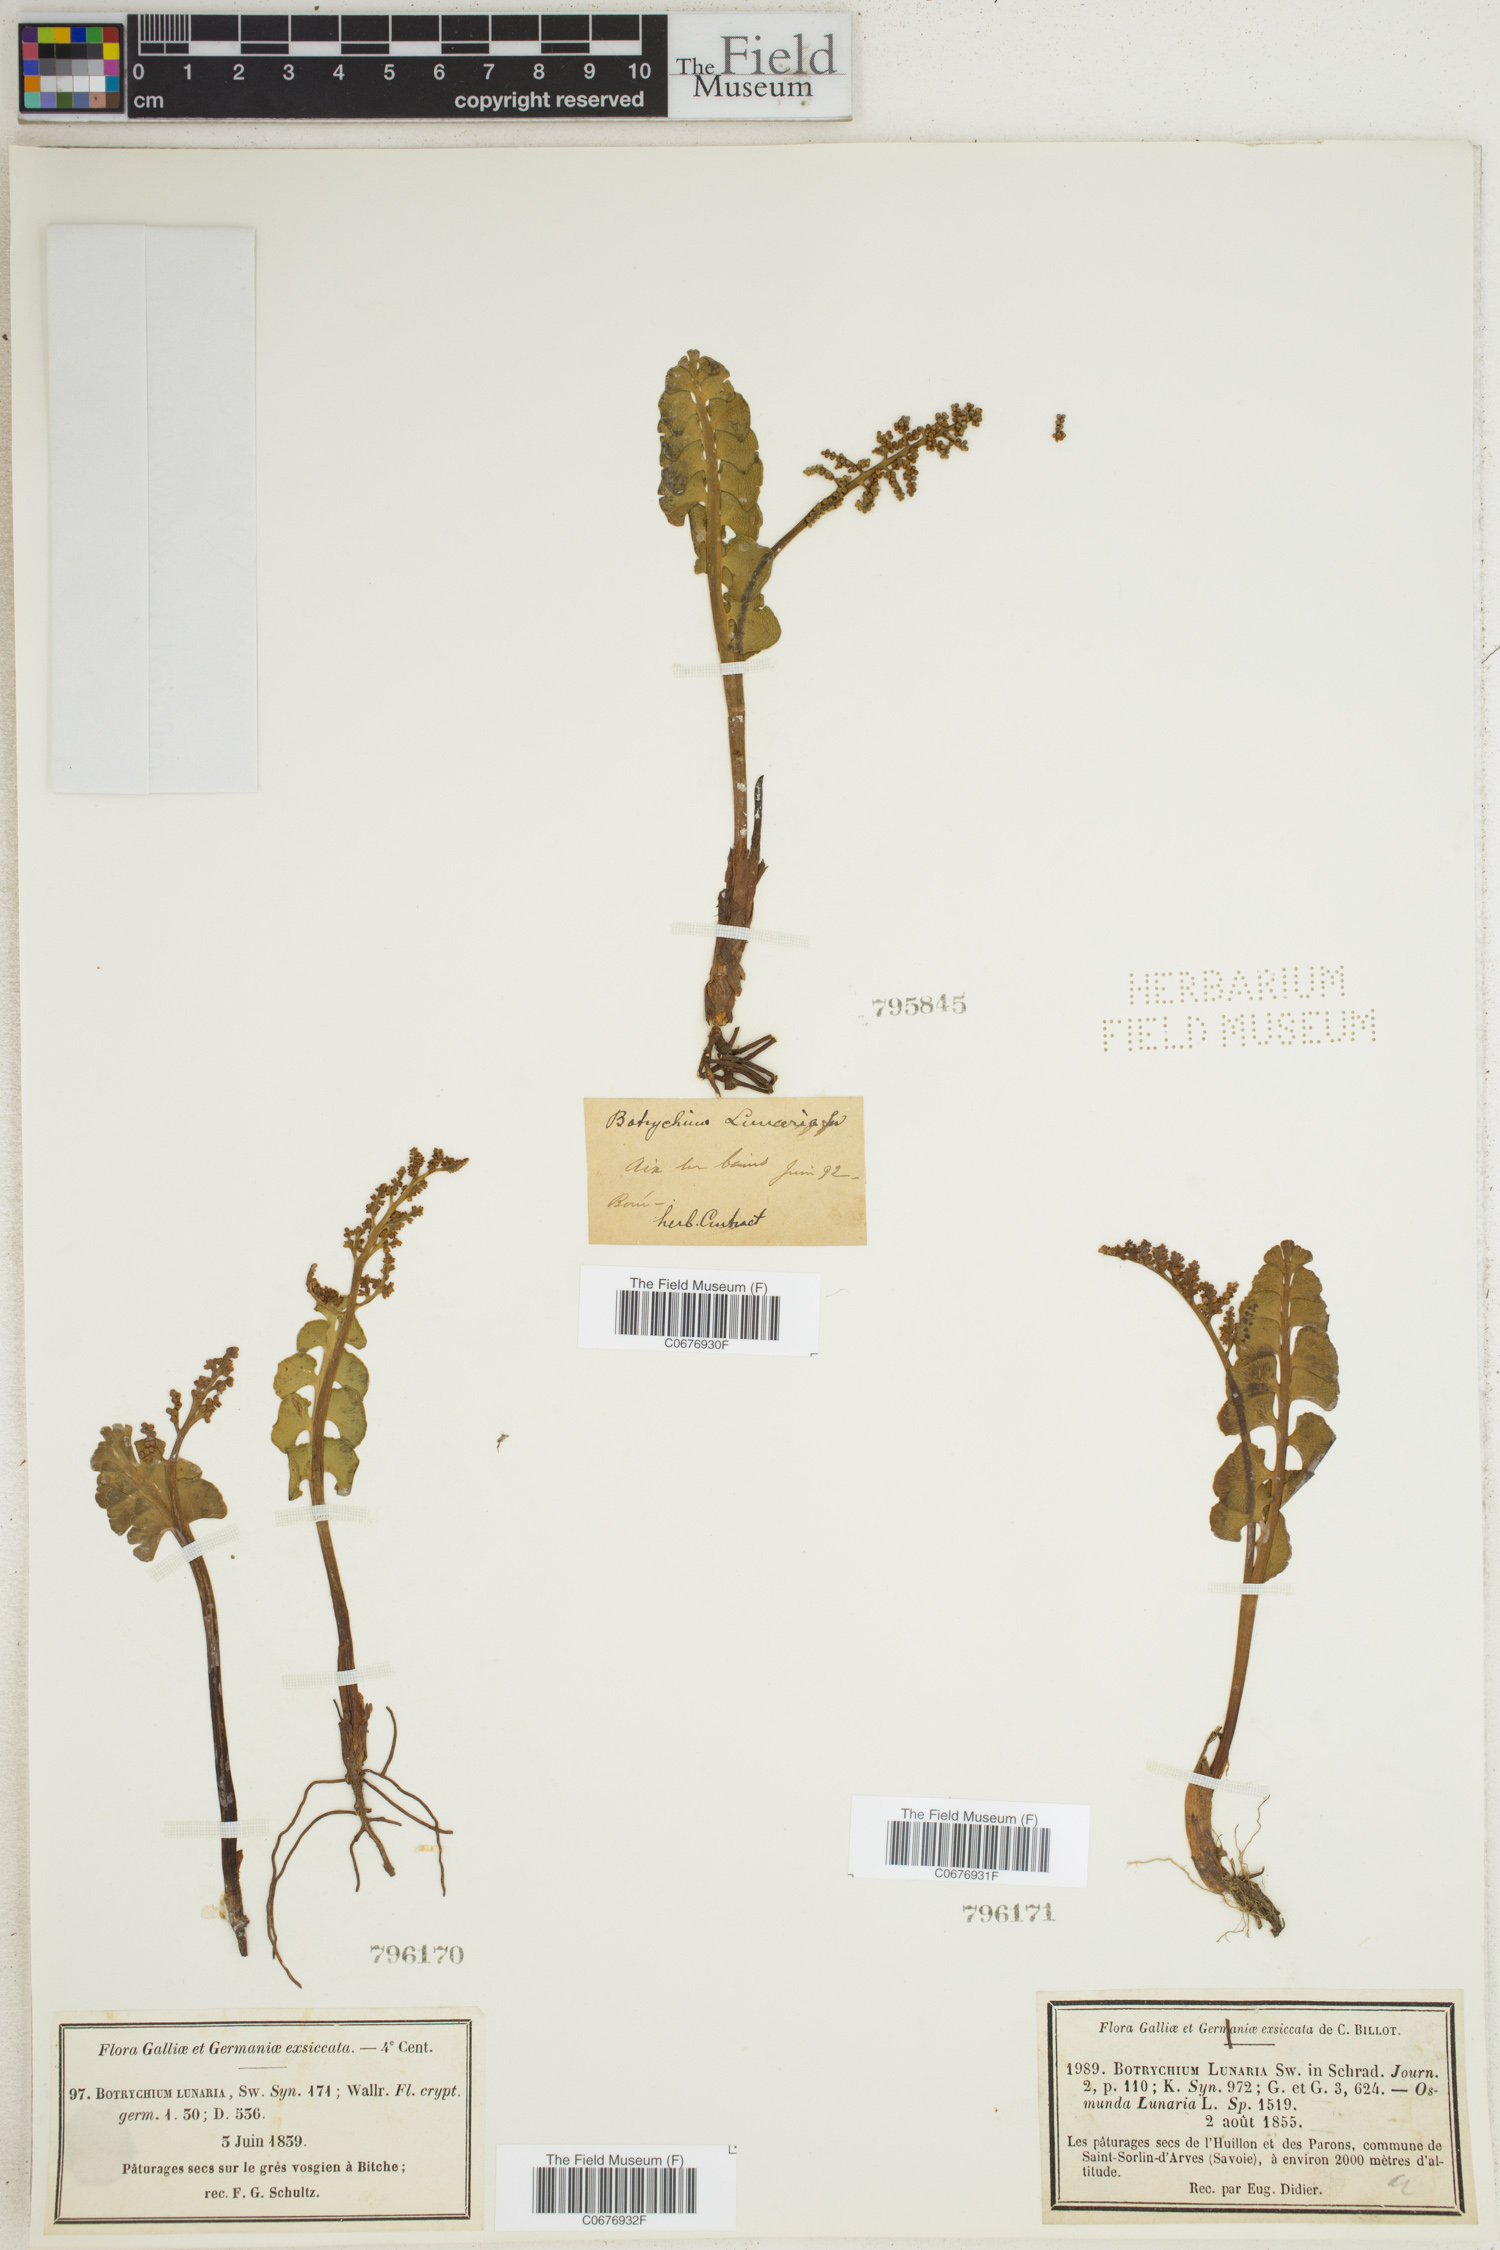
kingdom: Plantae
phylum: Tracheophyta
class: Polypodiopsida
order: Ophioglossales
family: Ophioglossaceae
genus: Botrychium
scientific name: Botrychium lunaria
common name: Moonwort
